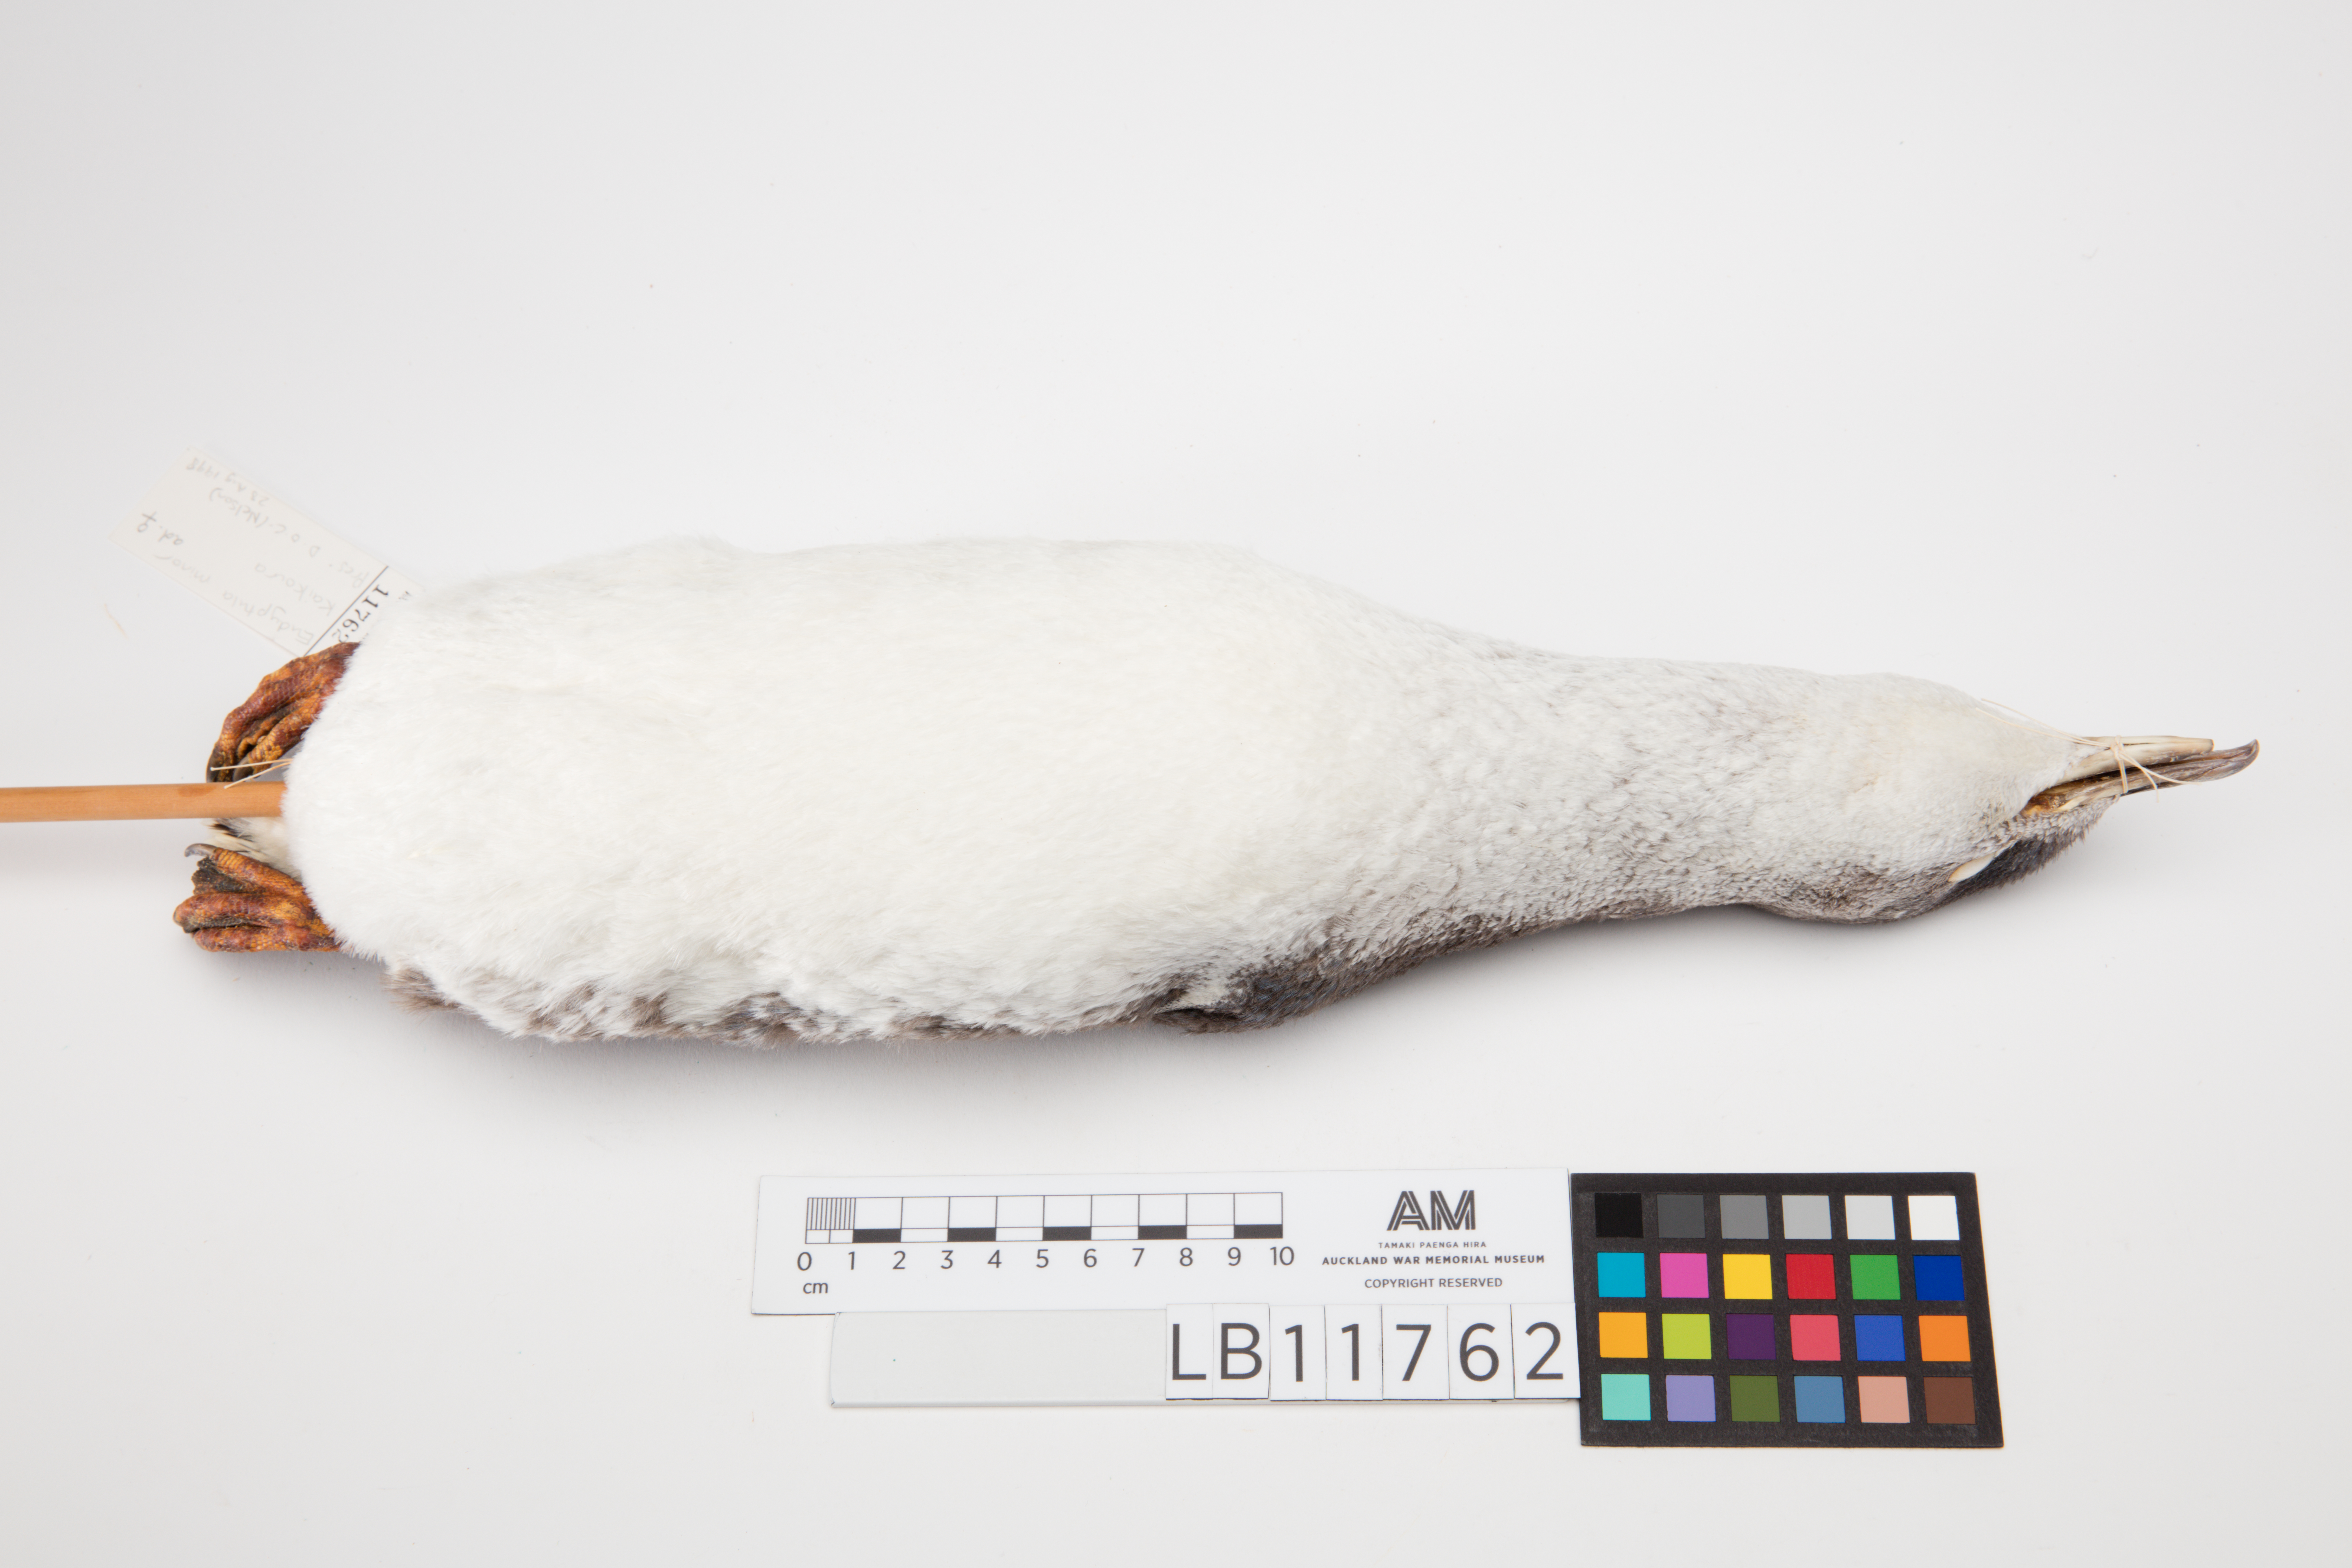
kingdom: Animalia
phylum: Chordata
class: Aves
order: Sphenisciformes
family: Spheniscidae
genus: Eudyptula
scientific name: Eudyptula minor
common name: Little penguin
